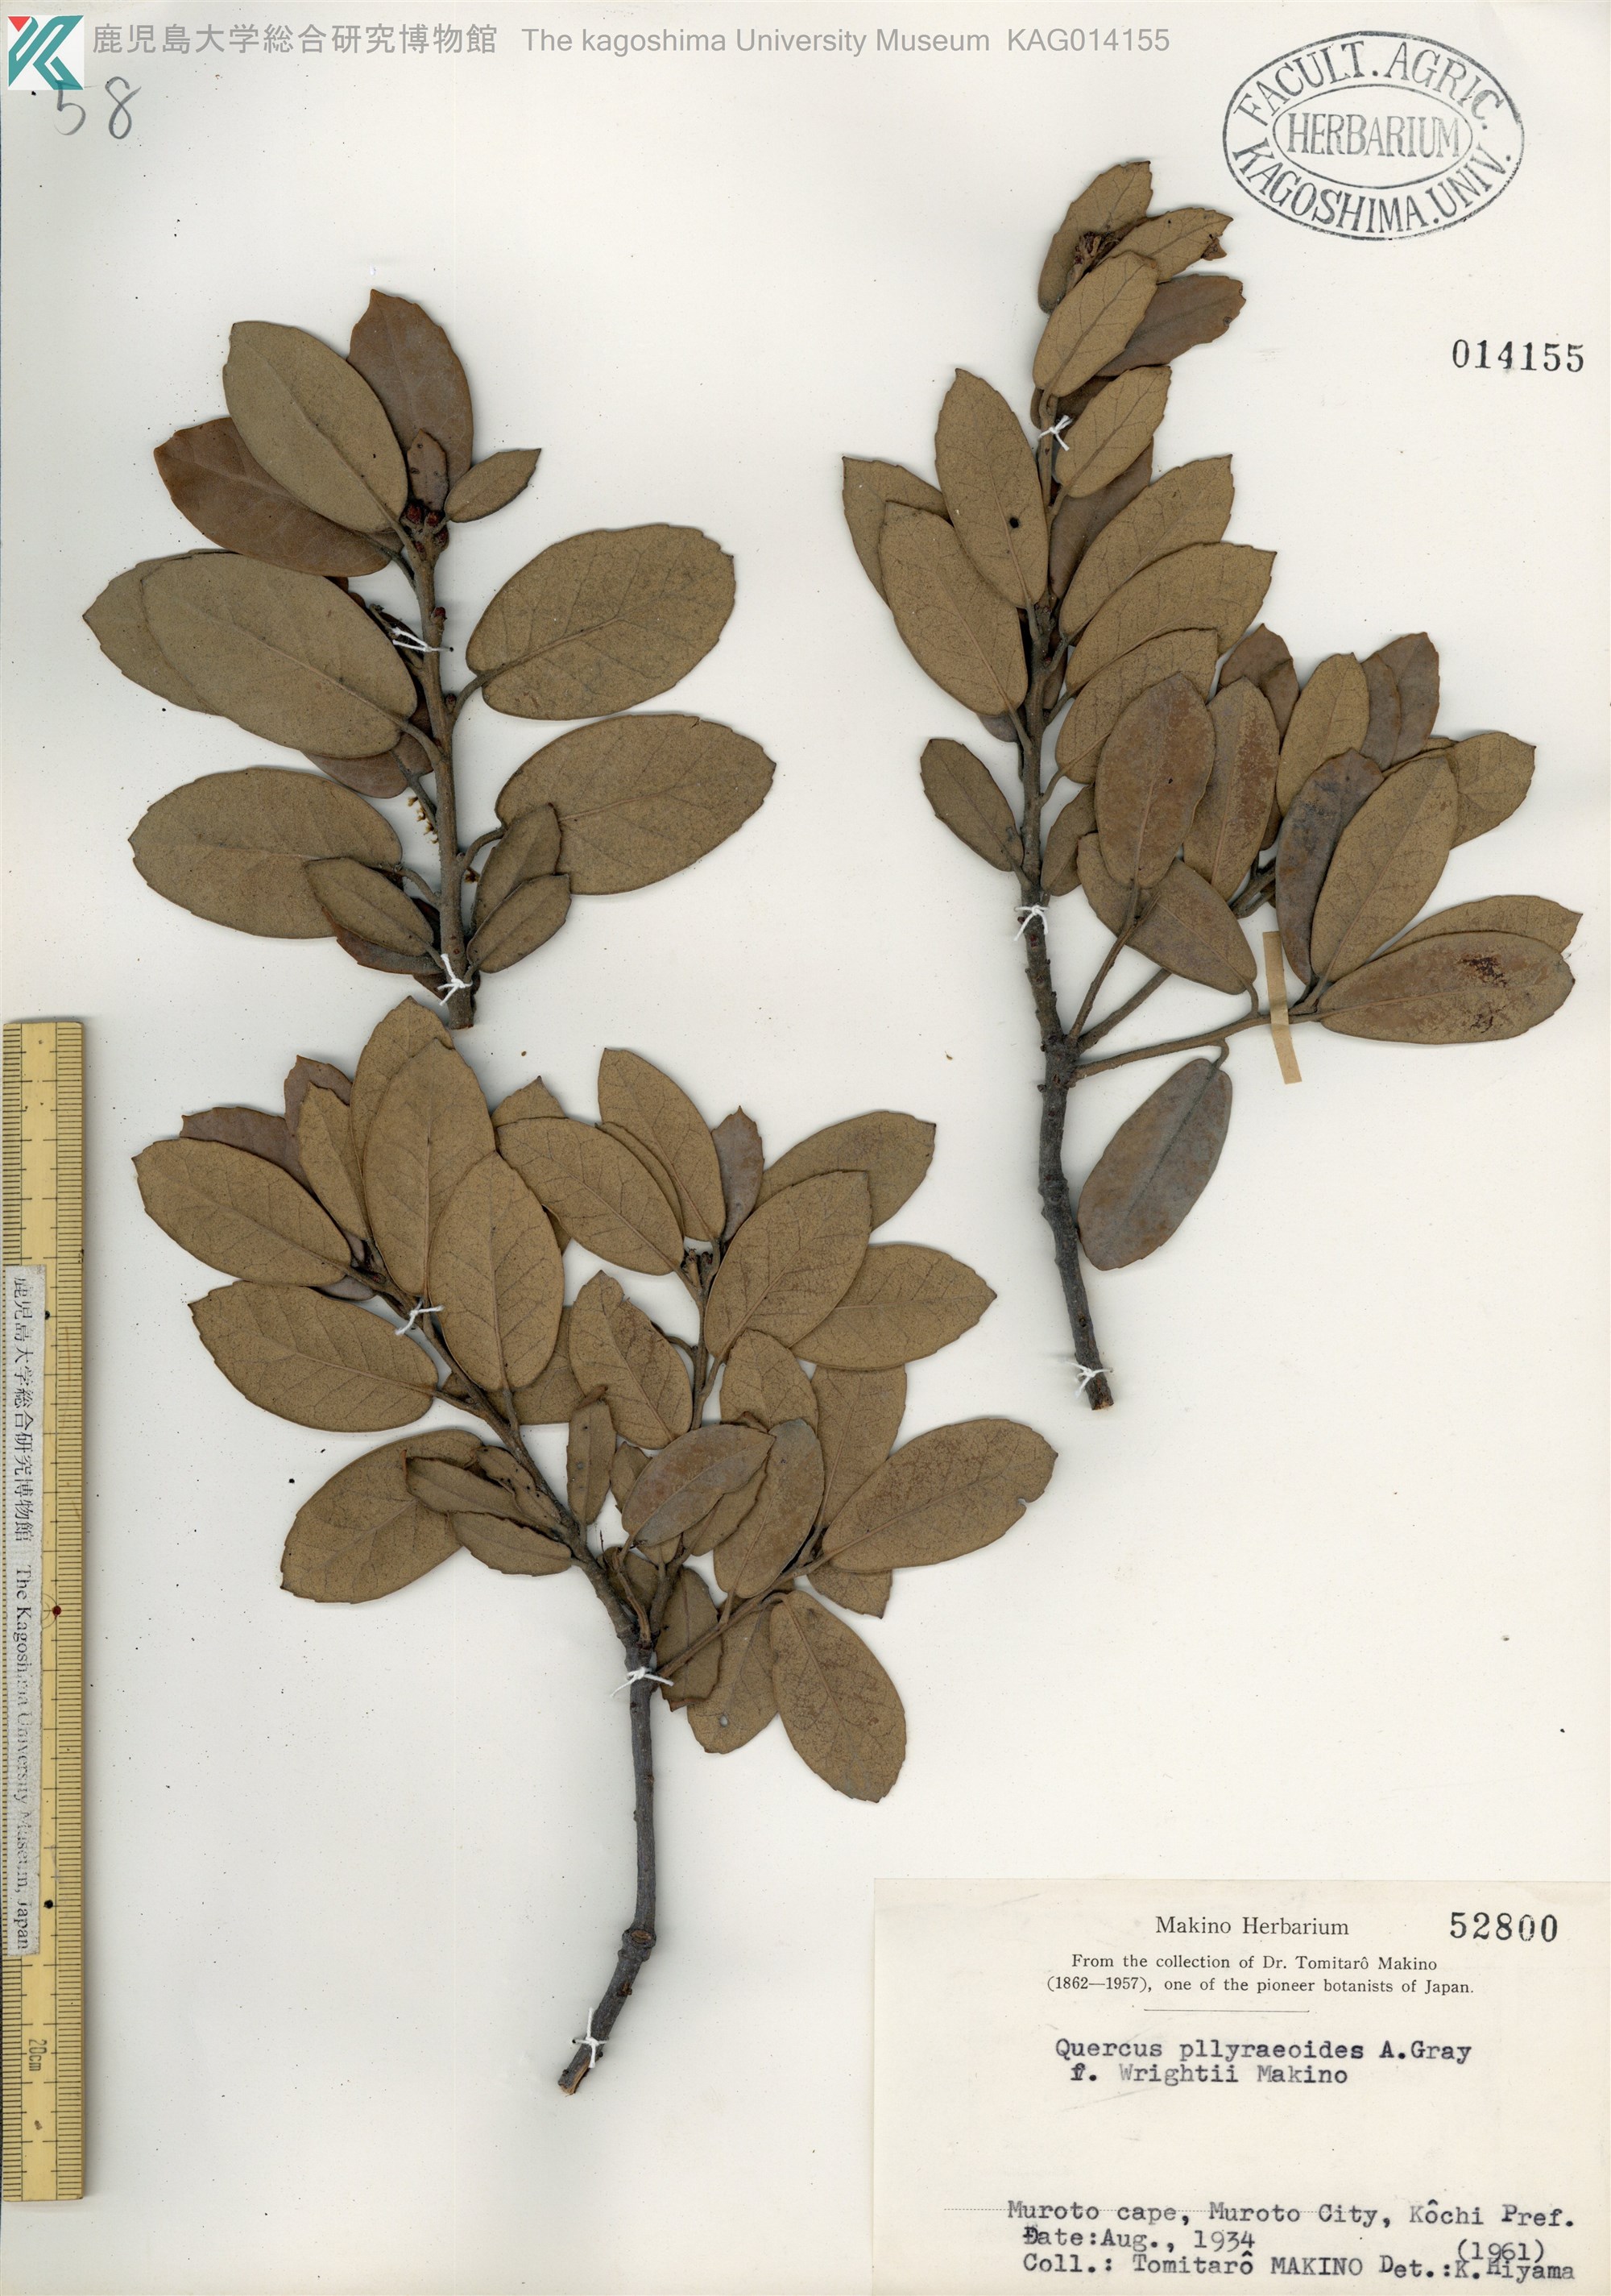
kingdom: Plantae
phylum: Tracheophyta
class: Magnoliopsida
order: Fagales
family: Fagaceae
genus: Quercus
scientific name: Quercus phillyraeoides
